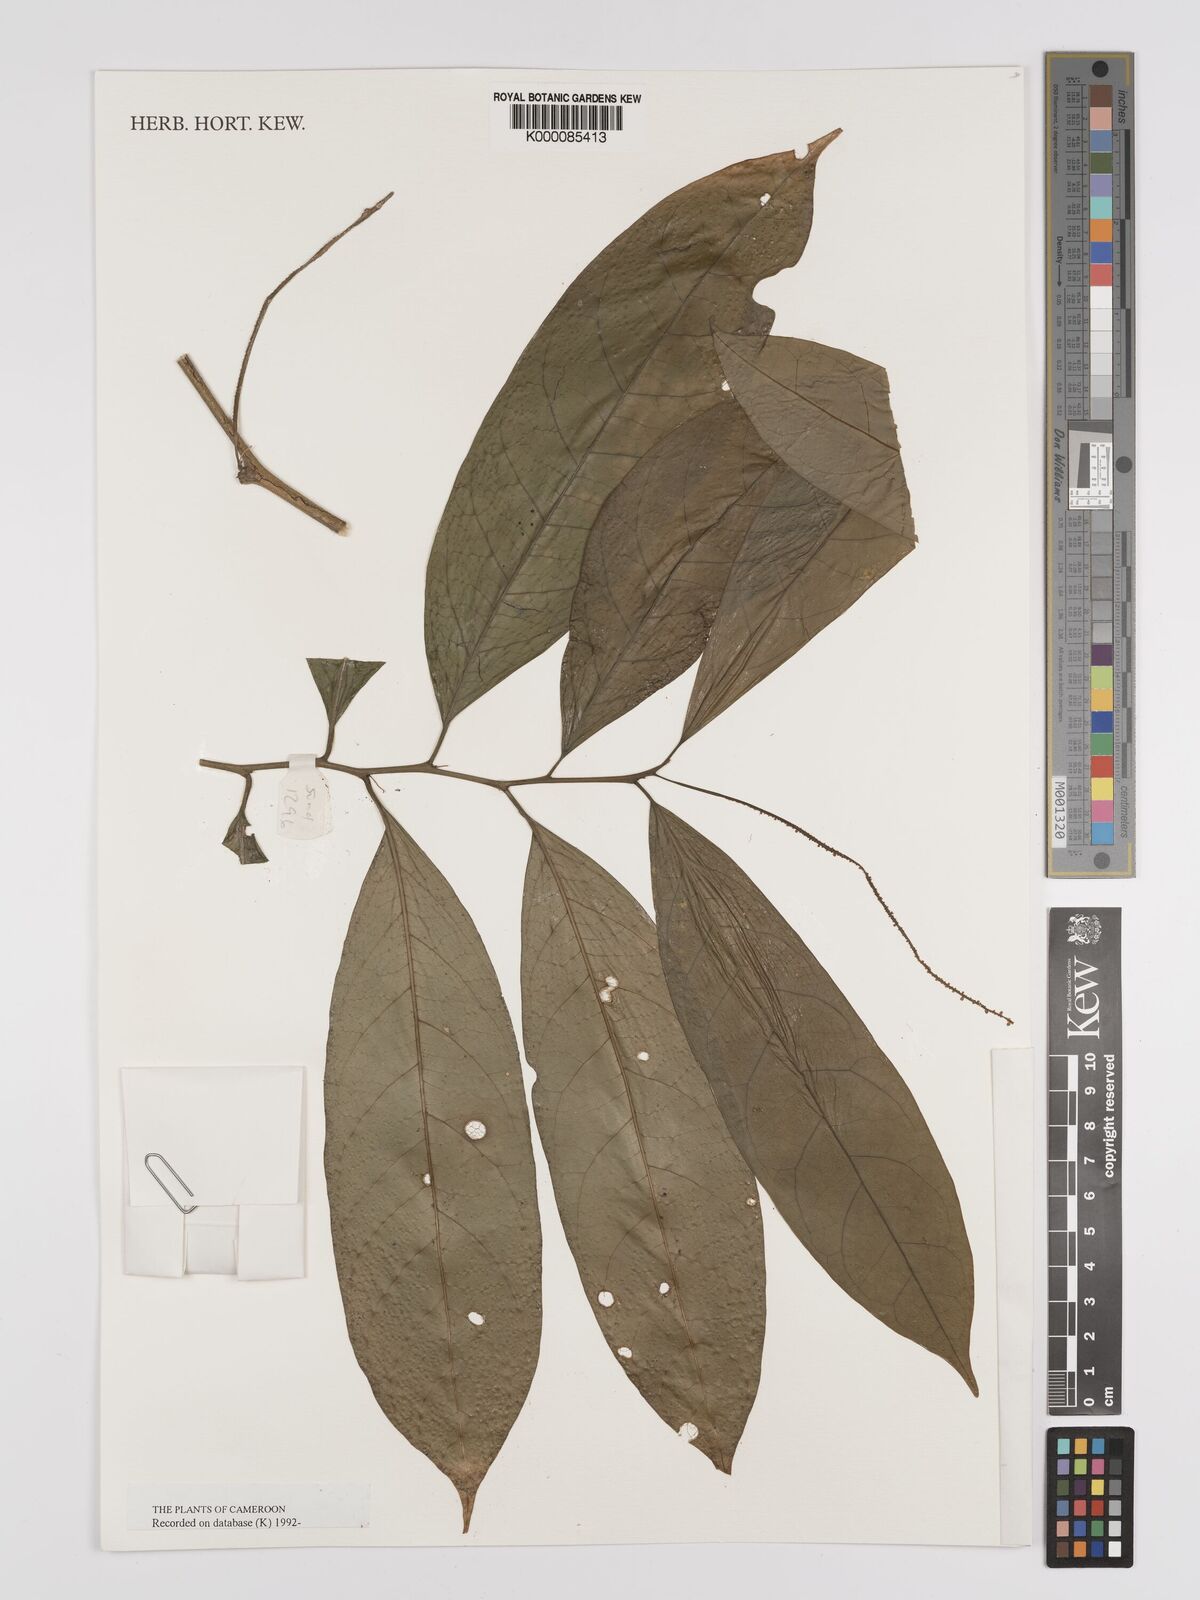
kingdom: Plantae
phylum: Tracheophyta
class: Magnoliopsida
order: Icacinales
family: Icacinaceae
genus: Vadensea
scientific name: Vadensea tenuifolia
